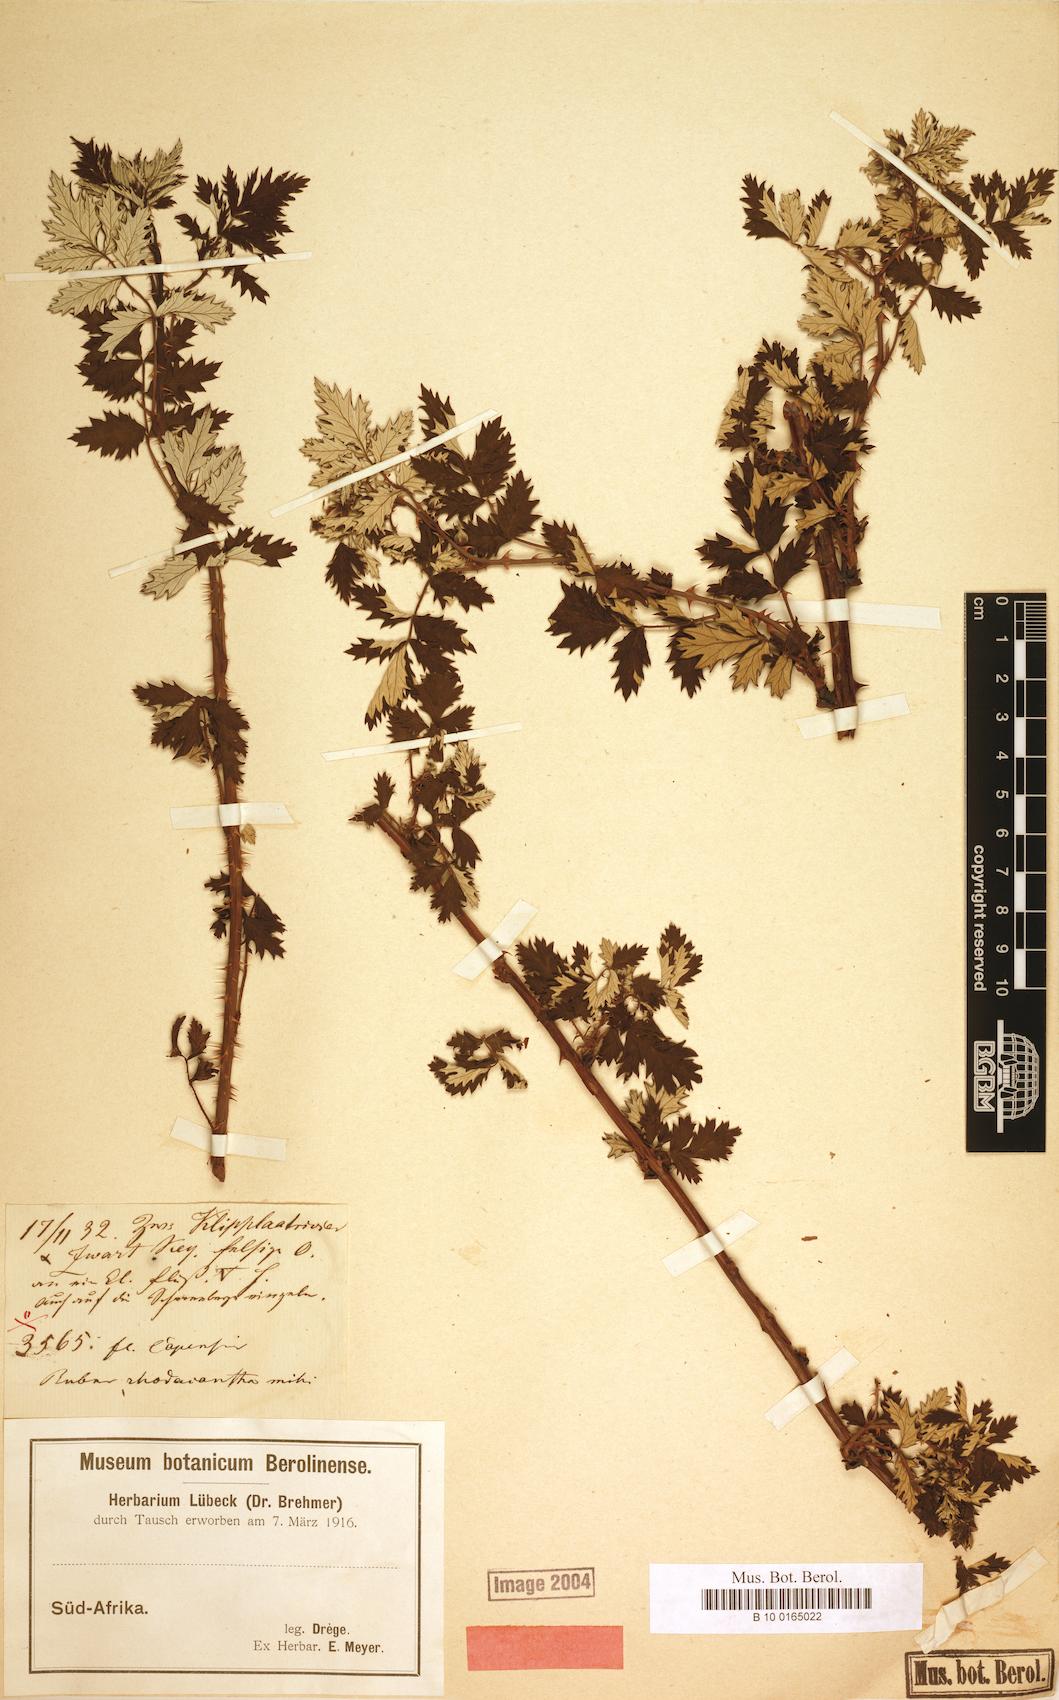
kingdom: Plantae
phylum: Tracheophyta
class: Magnoliopsida
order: Rosales
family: Rosaceae
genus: Rubus
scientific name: Rubus ludwigii
